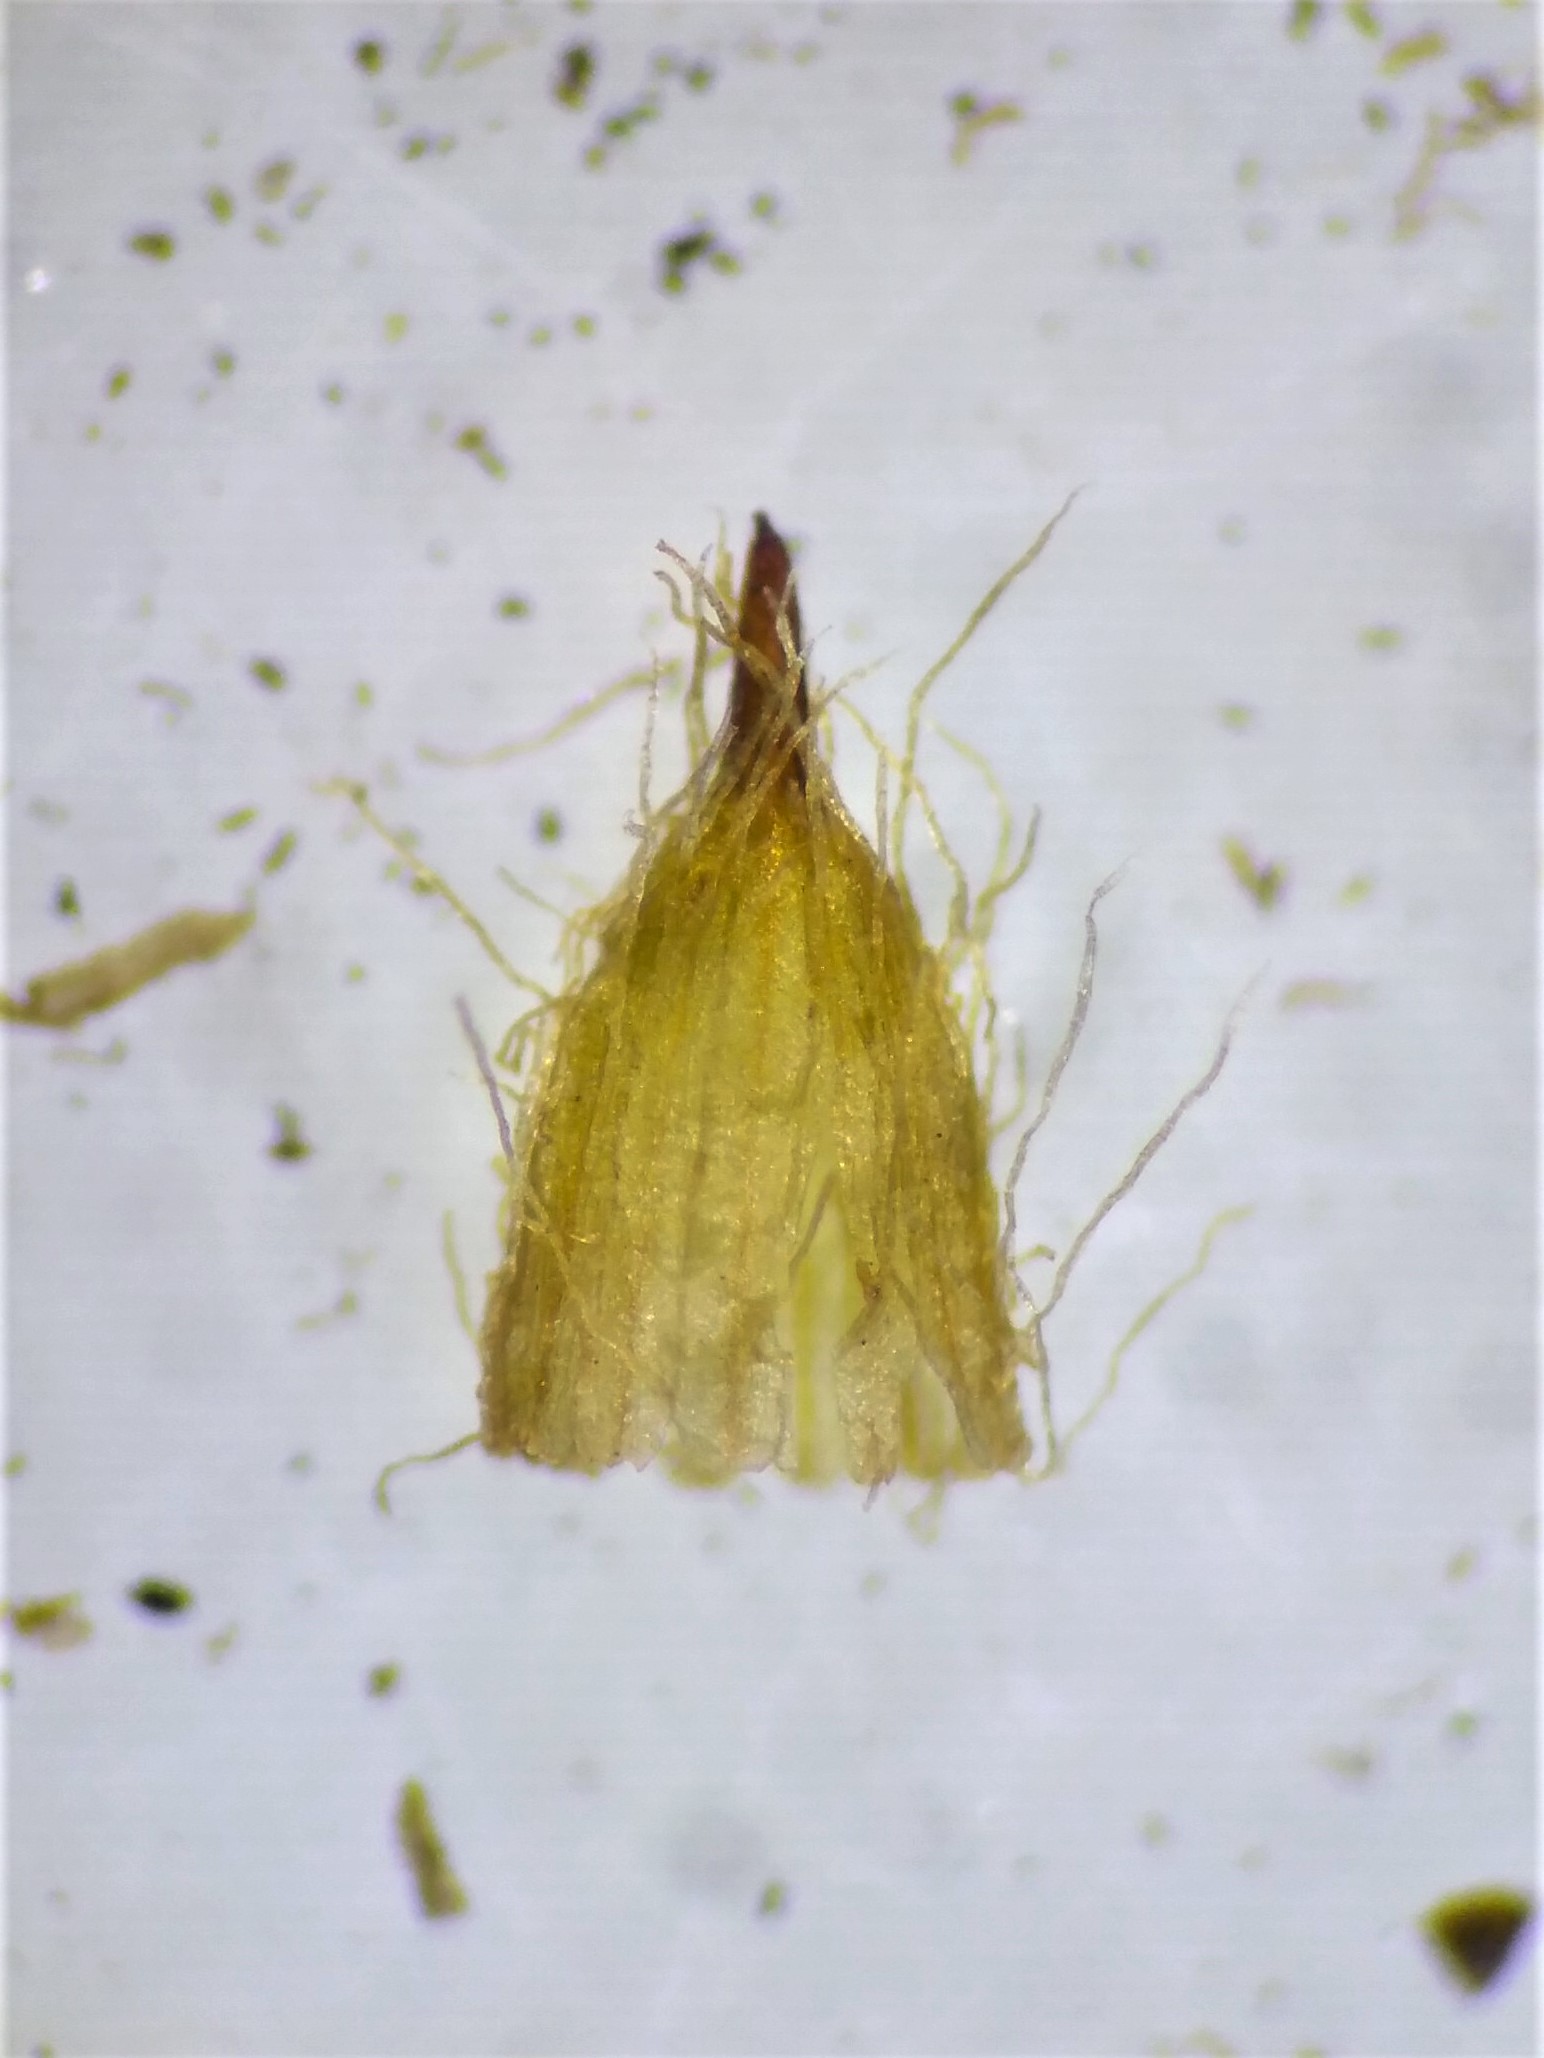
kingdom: Plantae
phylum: Bryophyta
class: Bryopsida
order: Orthotrichales
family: Orthotrichaceae
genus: Lewinskya
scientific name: Lewinskya speciosa
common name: Kortstribet furehætte
